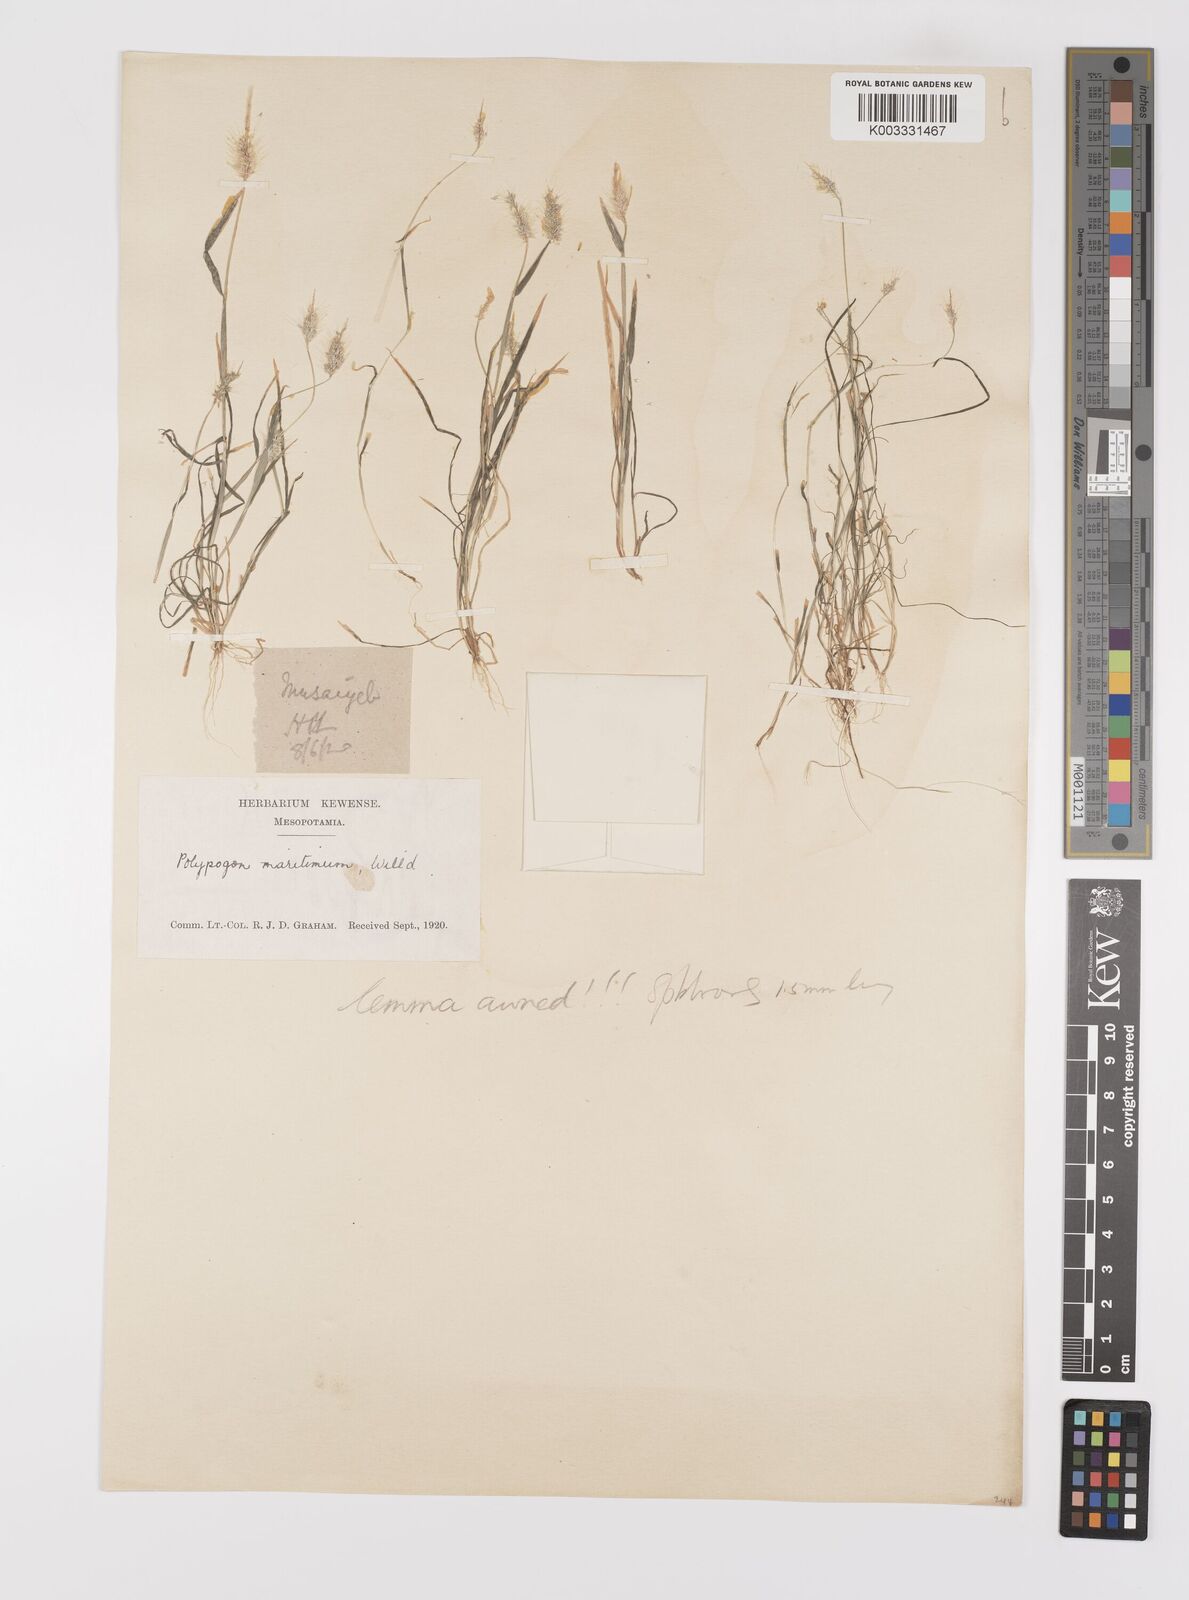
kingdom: Plantae
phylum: Tracheophyta
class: Liliopsida
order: Poales
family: Poaceae
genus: Polypogon
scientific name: Polypogon maritimus
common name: Mediterranean rabbitsfoot grass
